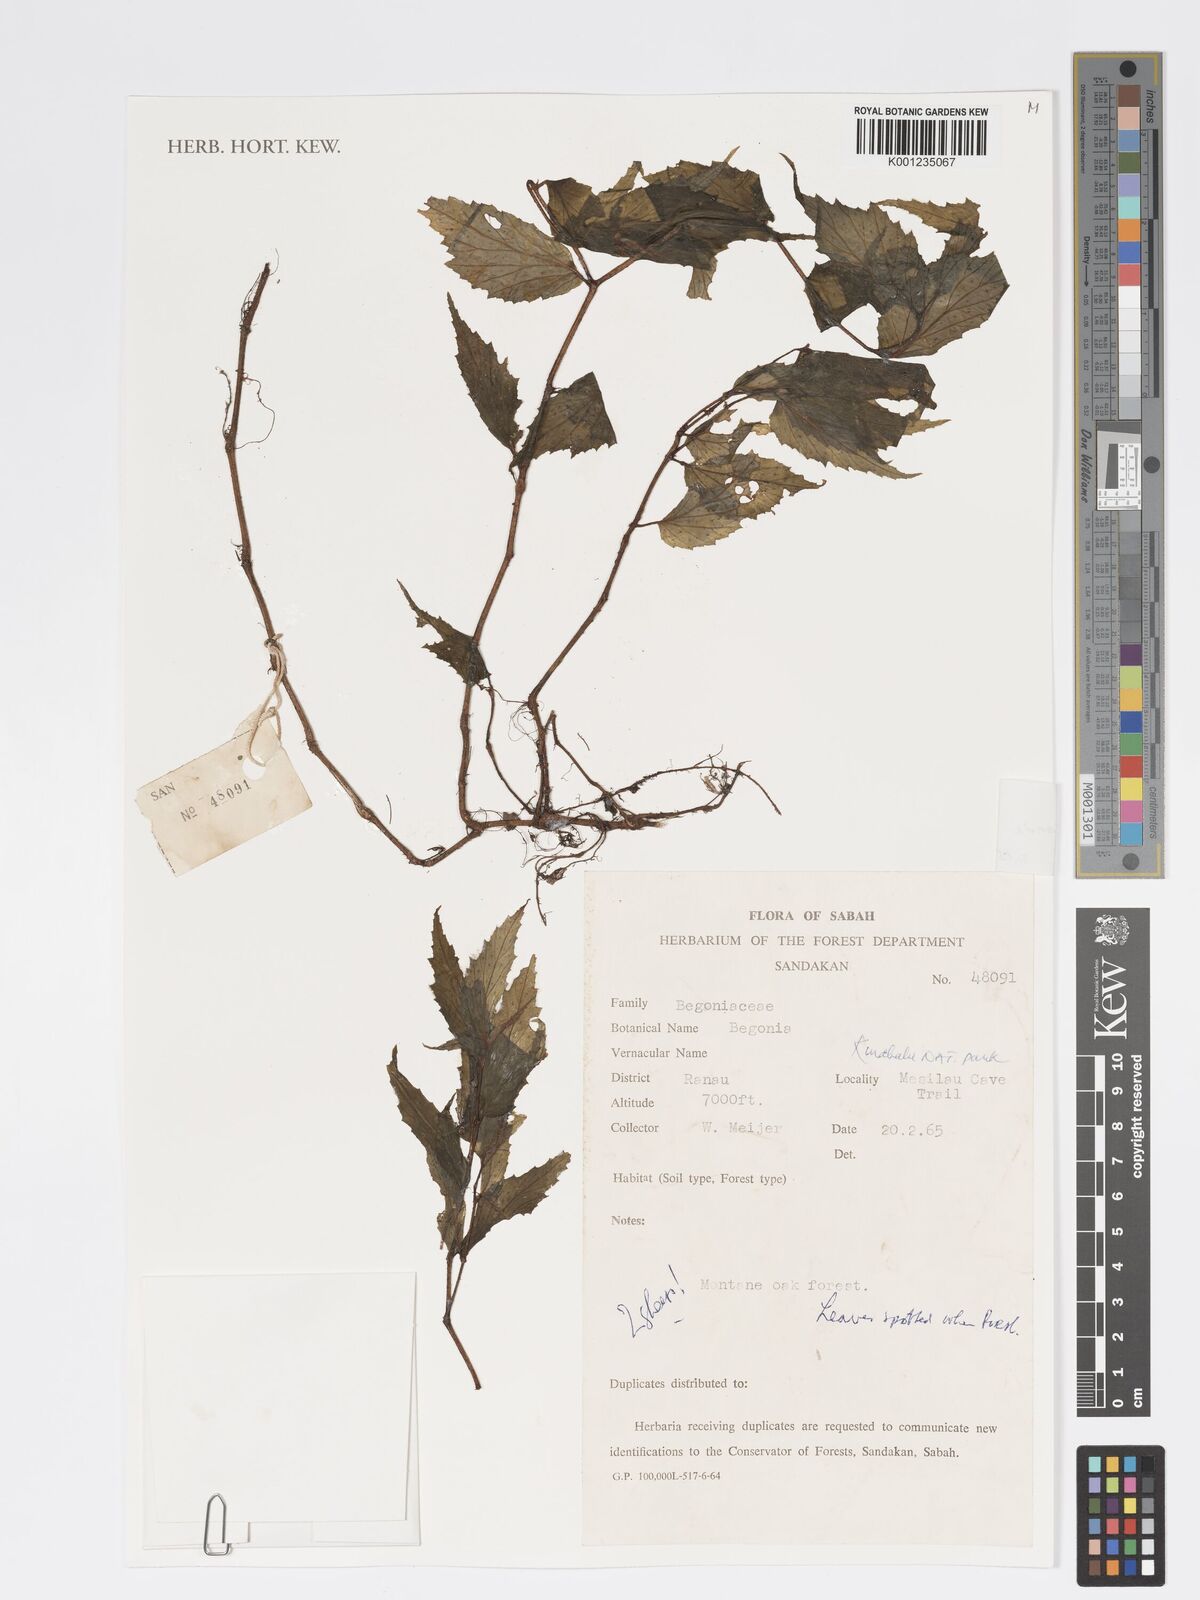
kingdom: Plantae
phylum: Tracheophyta
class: Magnoliopsida
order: Cucurbitales
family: Begoniaceae
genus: Begonia
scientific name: Begonia fuscisetosa
